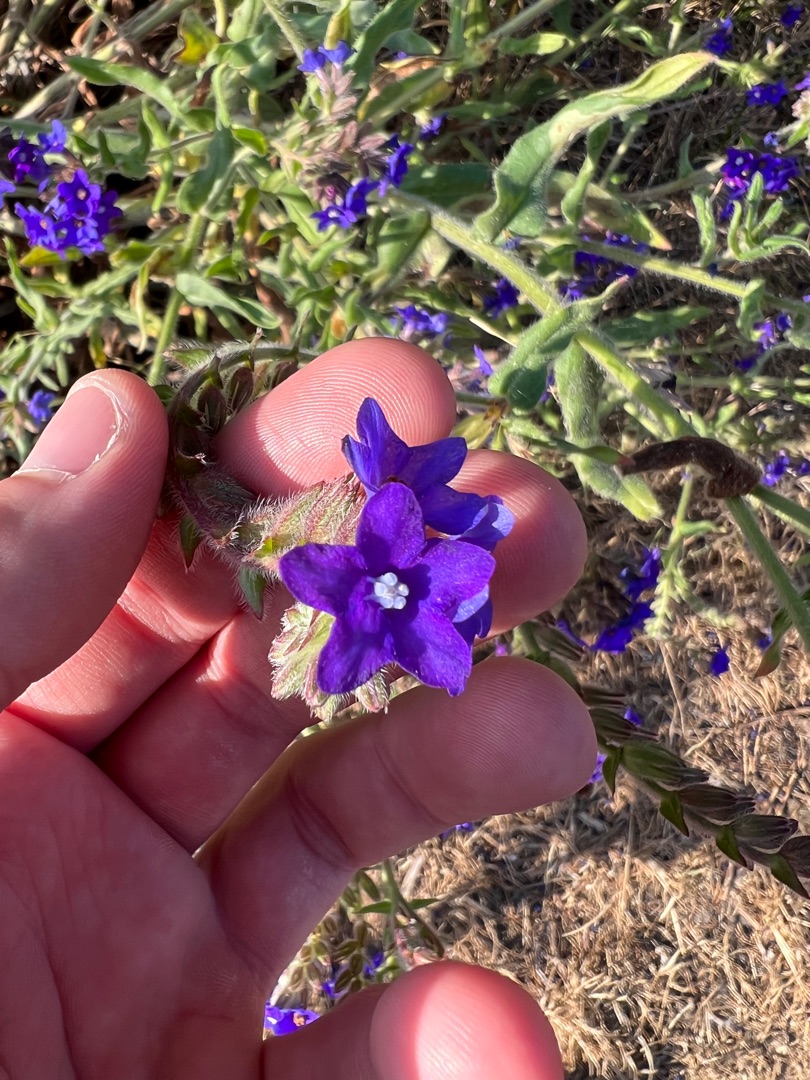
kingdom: Plantae
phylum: Tracheophyta
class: Magnoliopsida
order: Boraginales
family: Boraginaceae
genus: Anchusa
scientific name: Anchusa officinalis
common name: Læge-oksetunge
